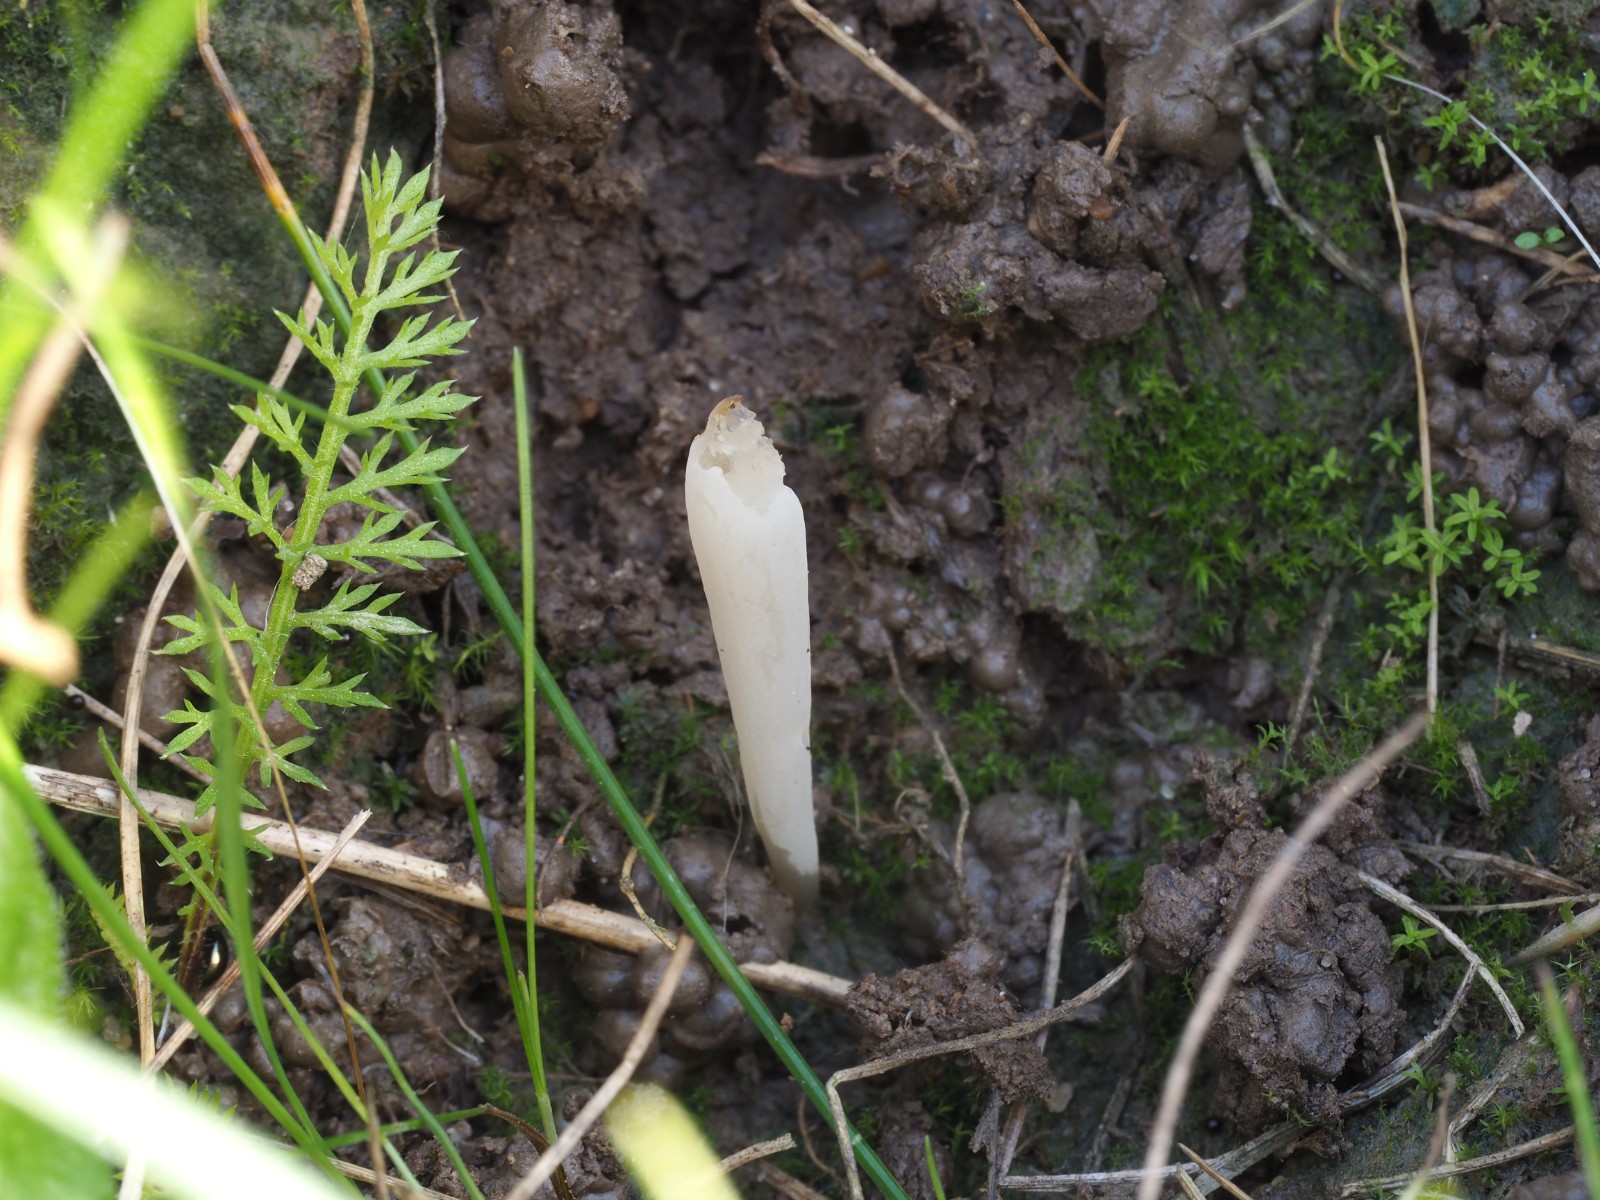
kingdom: Fungi
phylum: Basidiomycota
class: Agaricomycetes
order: Agaricales
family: Clavariaceae
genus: Clavaria
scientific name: Clavaria tenuipes
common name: isabellafarvet køllesvamp
